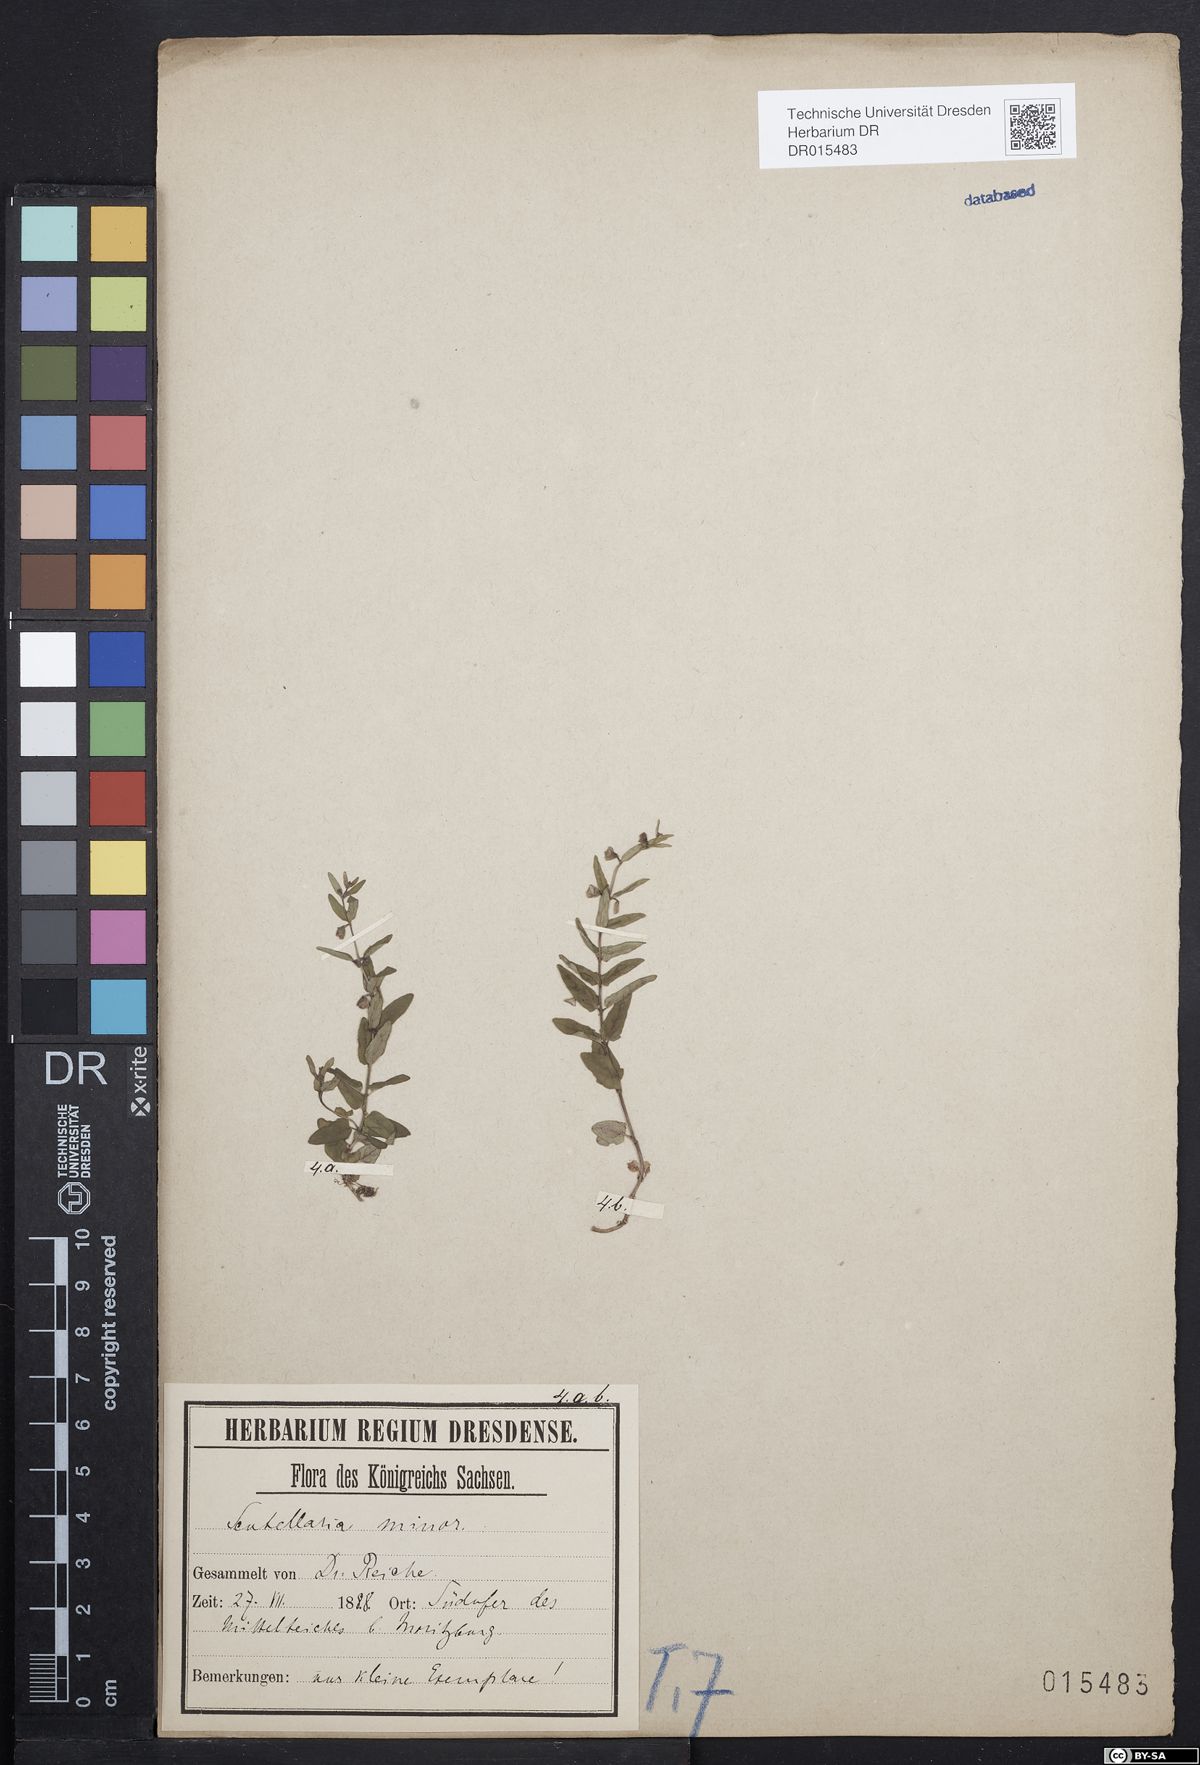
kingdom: Plantae
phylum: Tracheophyta
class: Magnoliopsida
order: Lamiales
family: Lamiaceae
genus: Scutellaria
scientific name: Scutellaria minor
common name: Lesser skullcap
